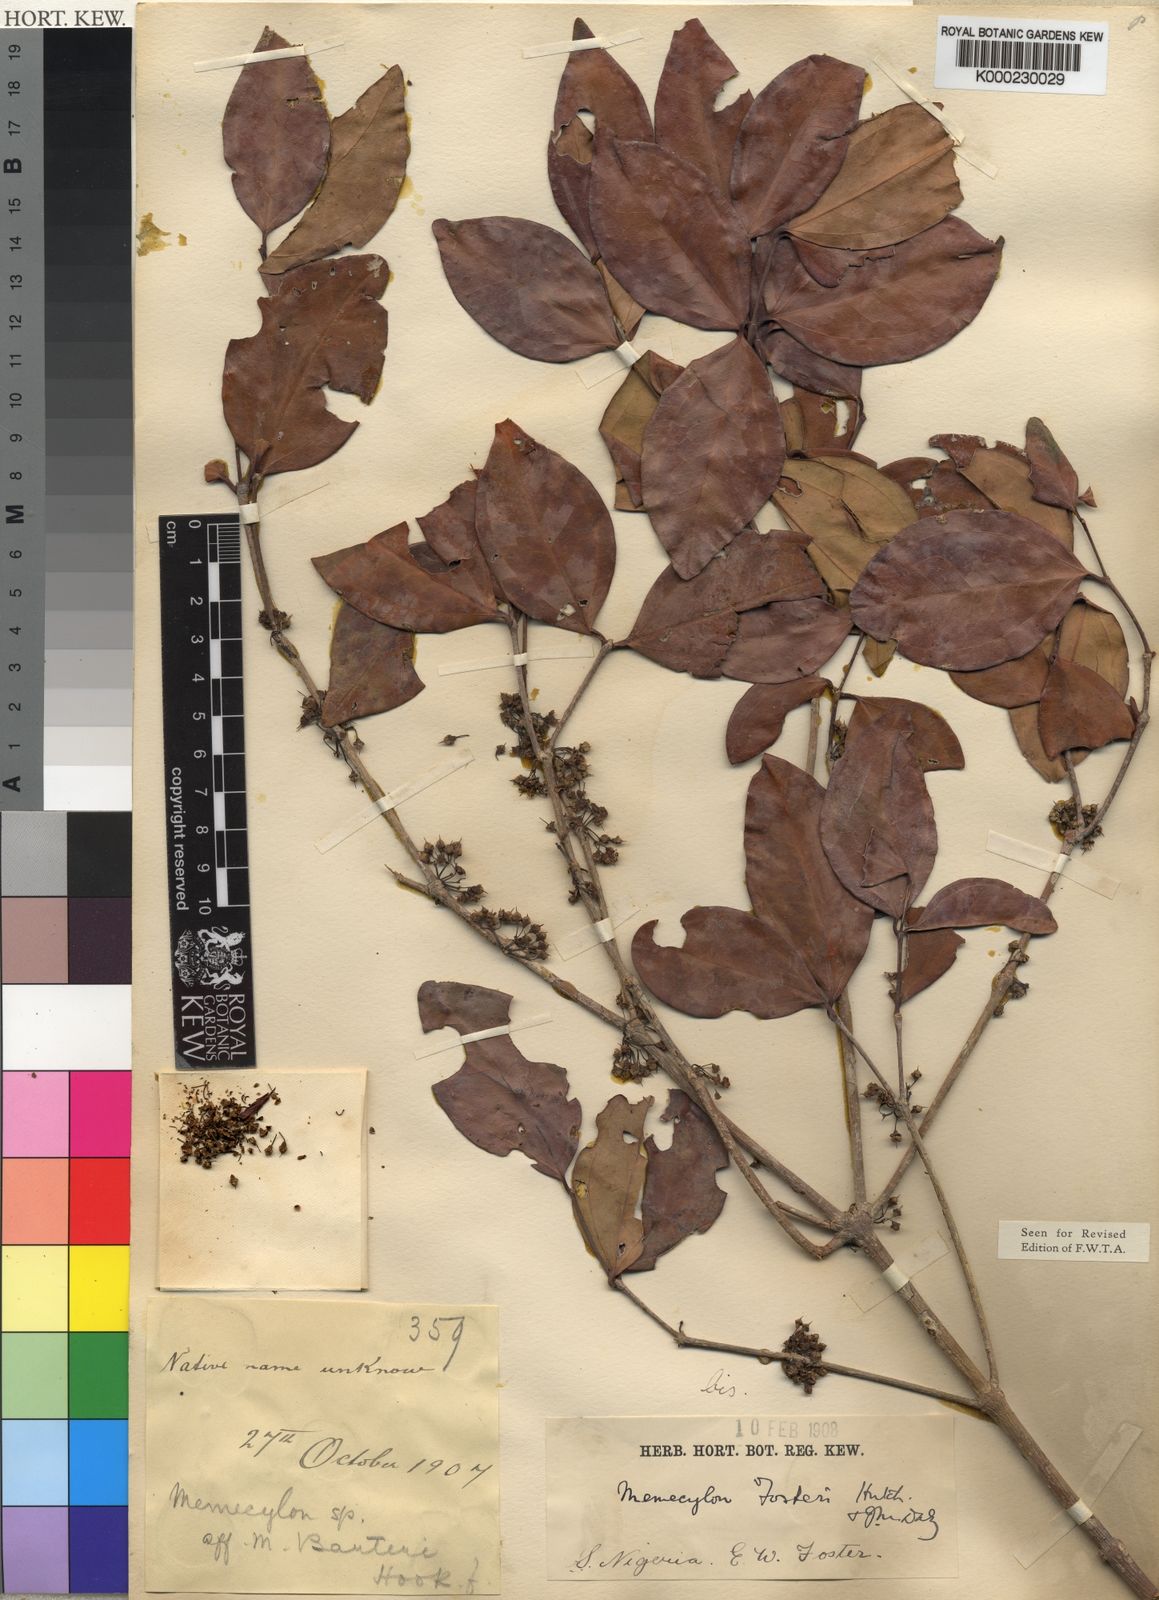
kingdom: Plantae
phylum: Tracheophyta
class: Magnoliopsida
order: Myrtales
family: Melastomataceae
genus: Warneckea
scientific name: Warneckea
